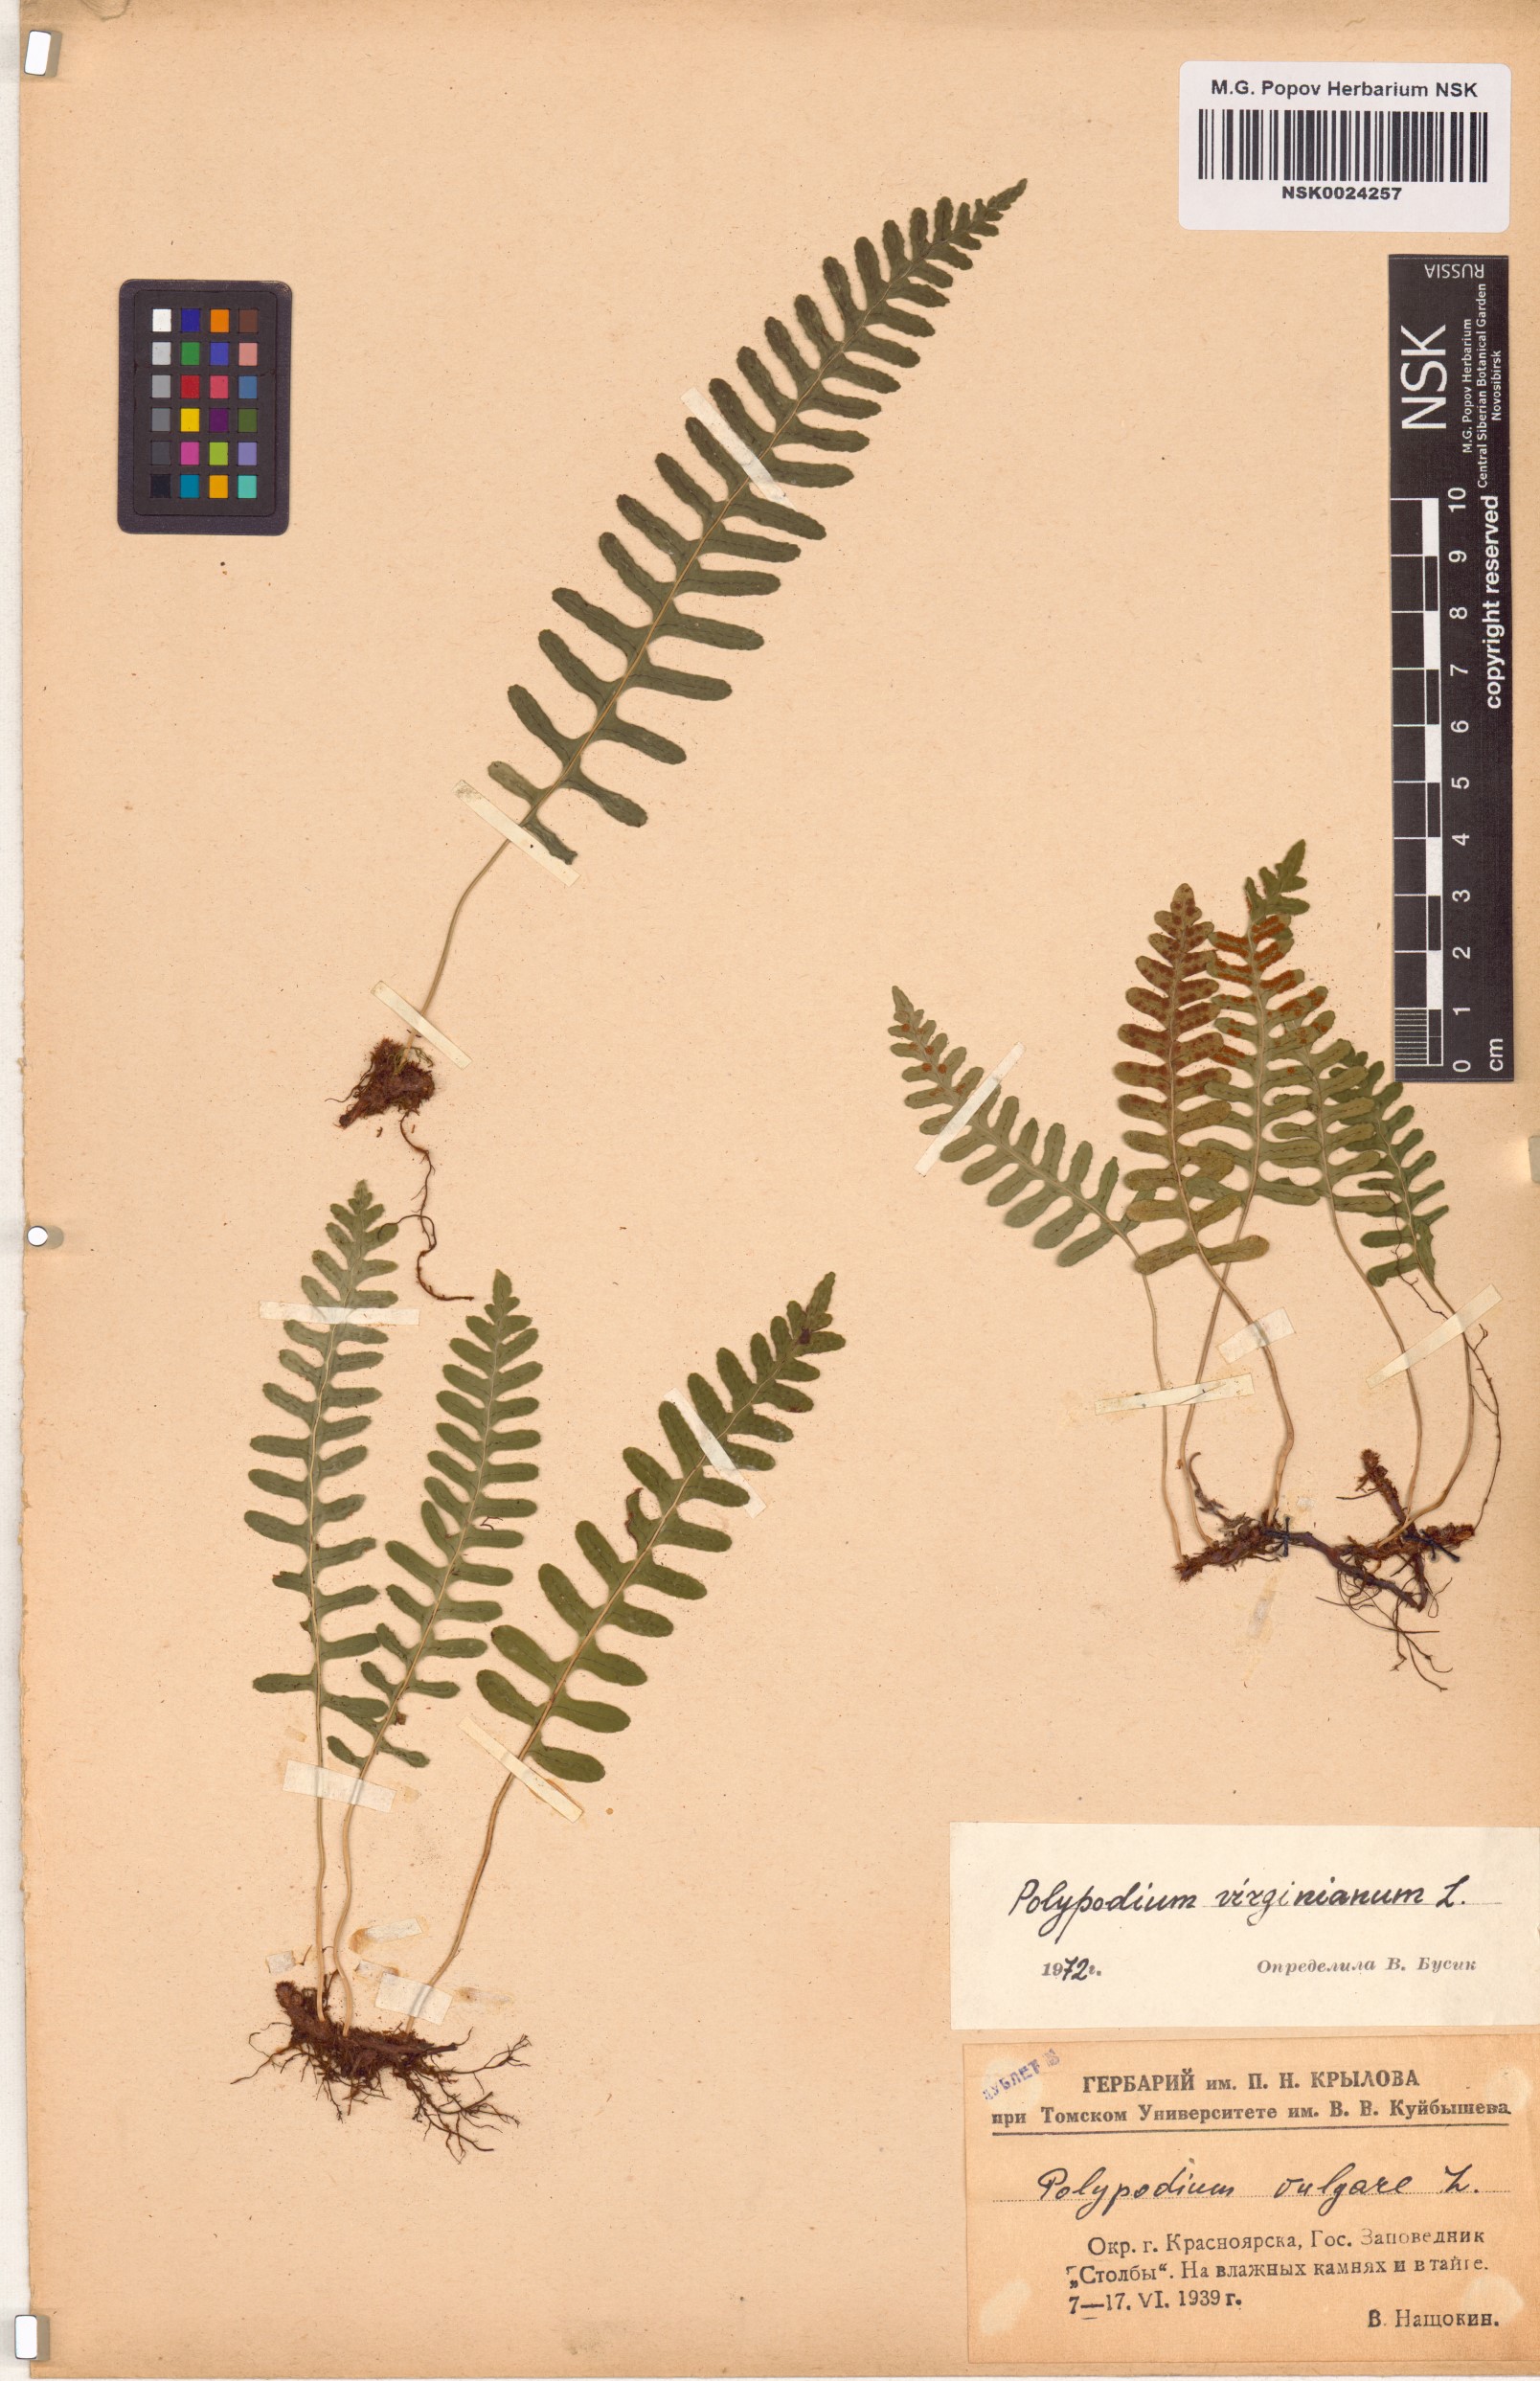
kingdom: Plantae
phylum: Tracheophyta
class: Polypodiopsida
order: Polypodiales
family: Polypodiaceae
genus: Polypodium
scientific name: Polypodium virginianum
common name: American wall fern
